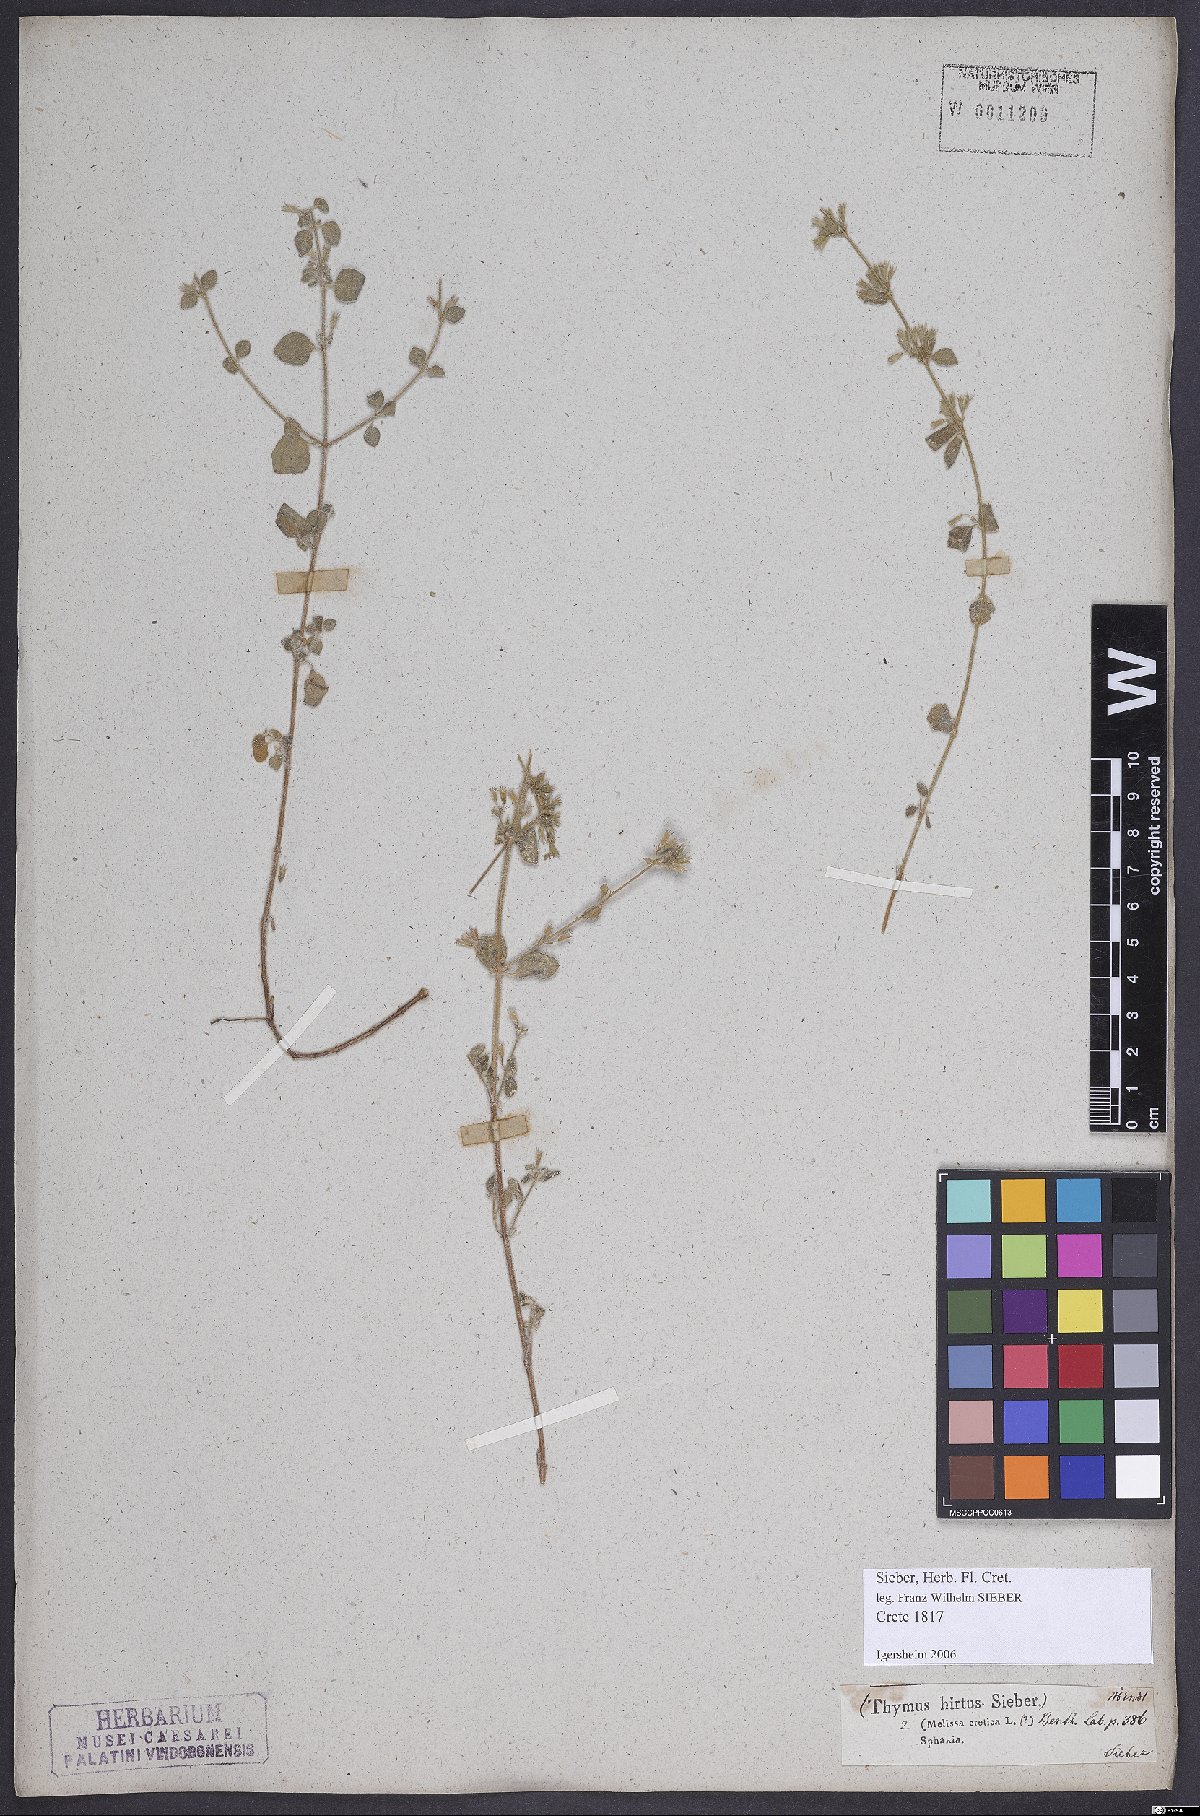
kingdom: Plantae
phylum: Tracheophyta
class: Magnoliopsida
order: Lamiales
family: Lamiaceae
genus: Clinopodium
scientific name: Clinopodium creticum
